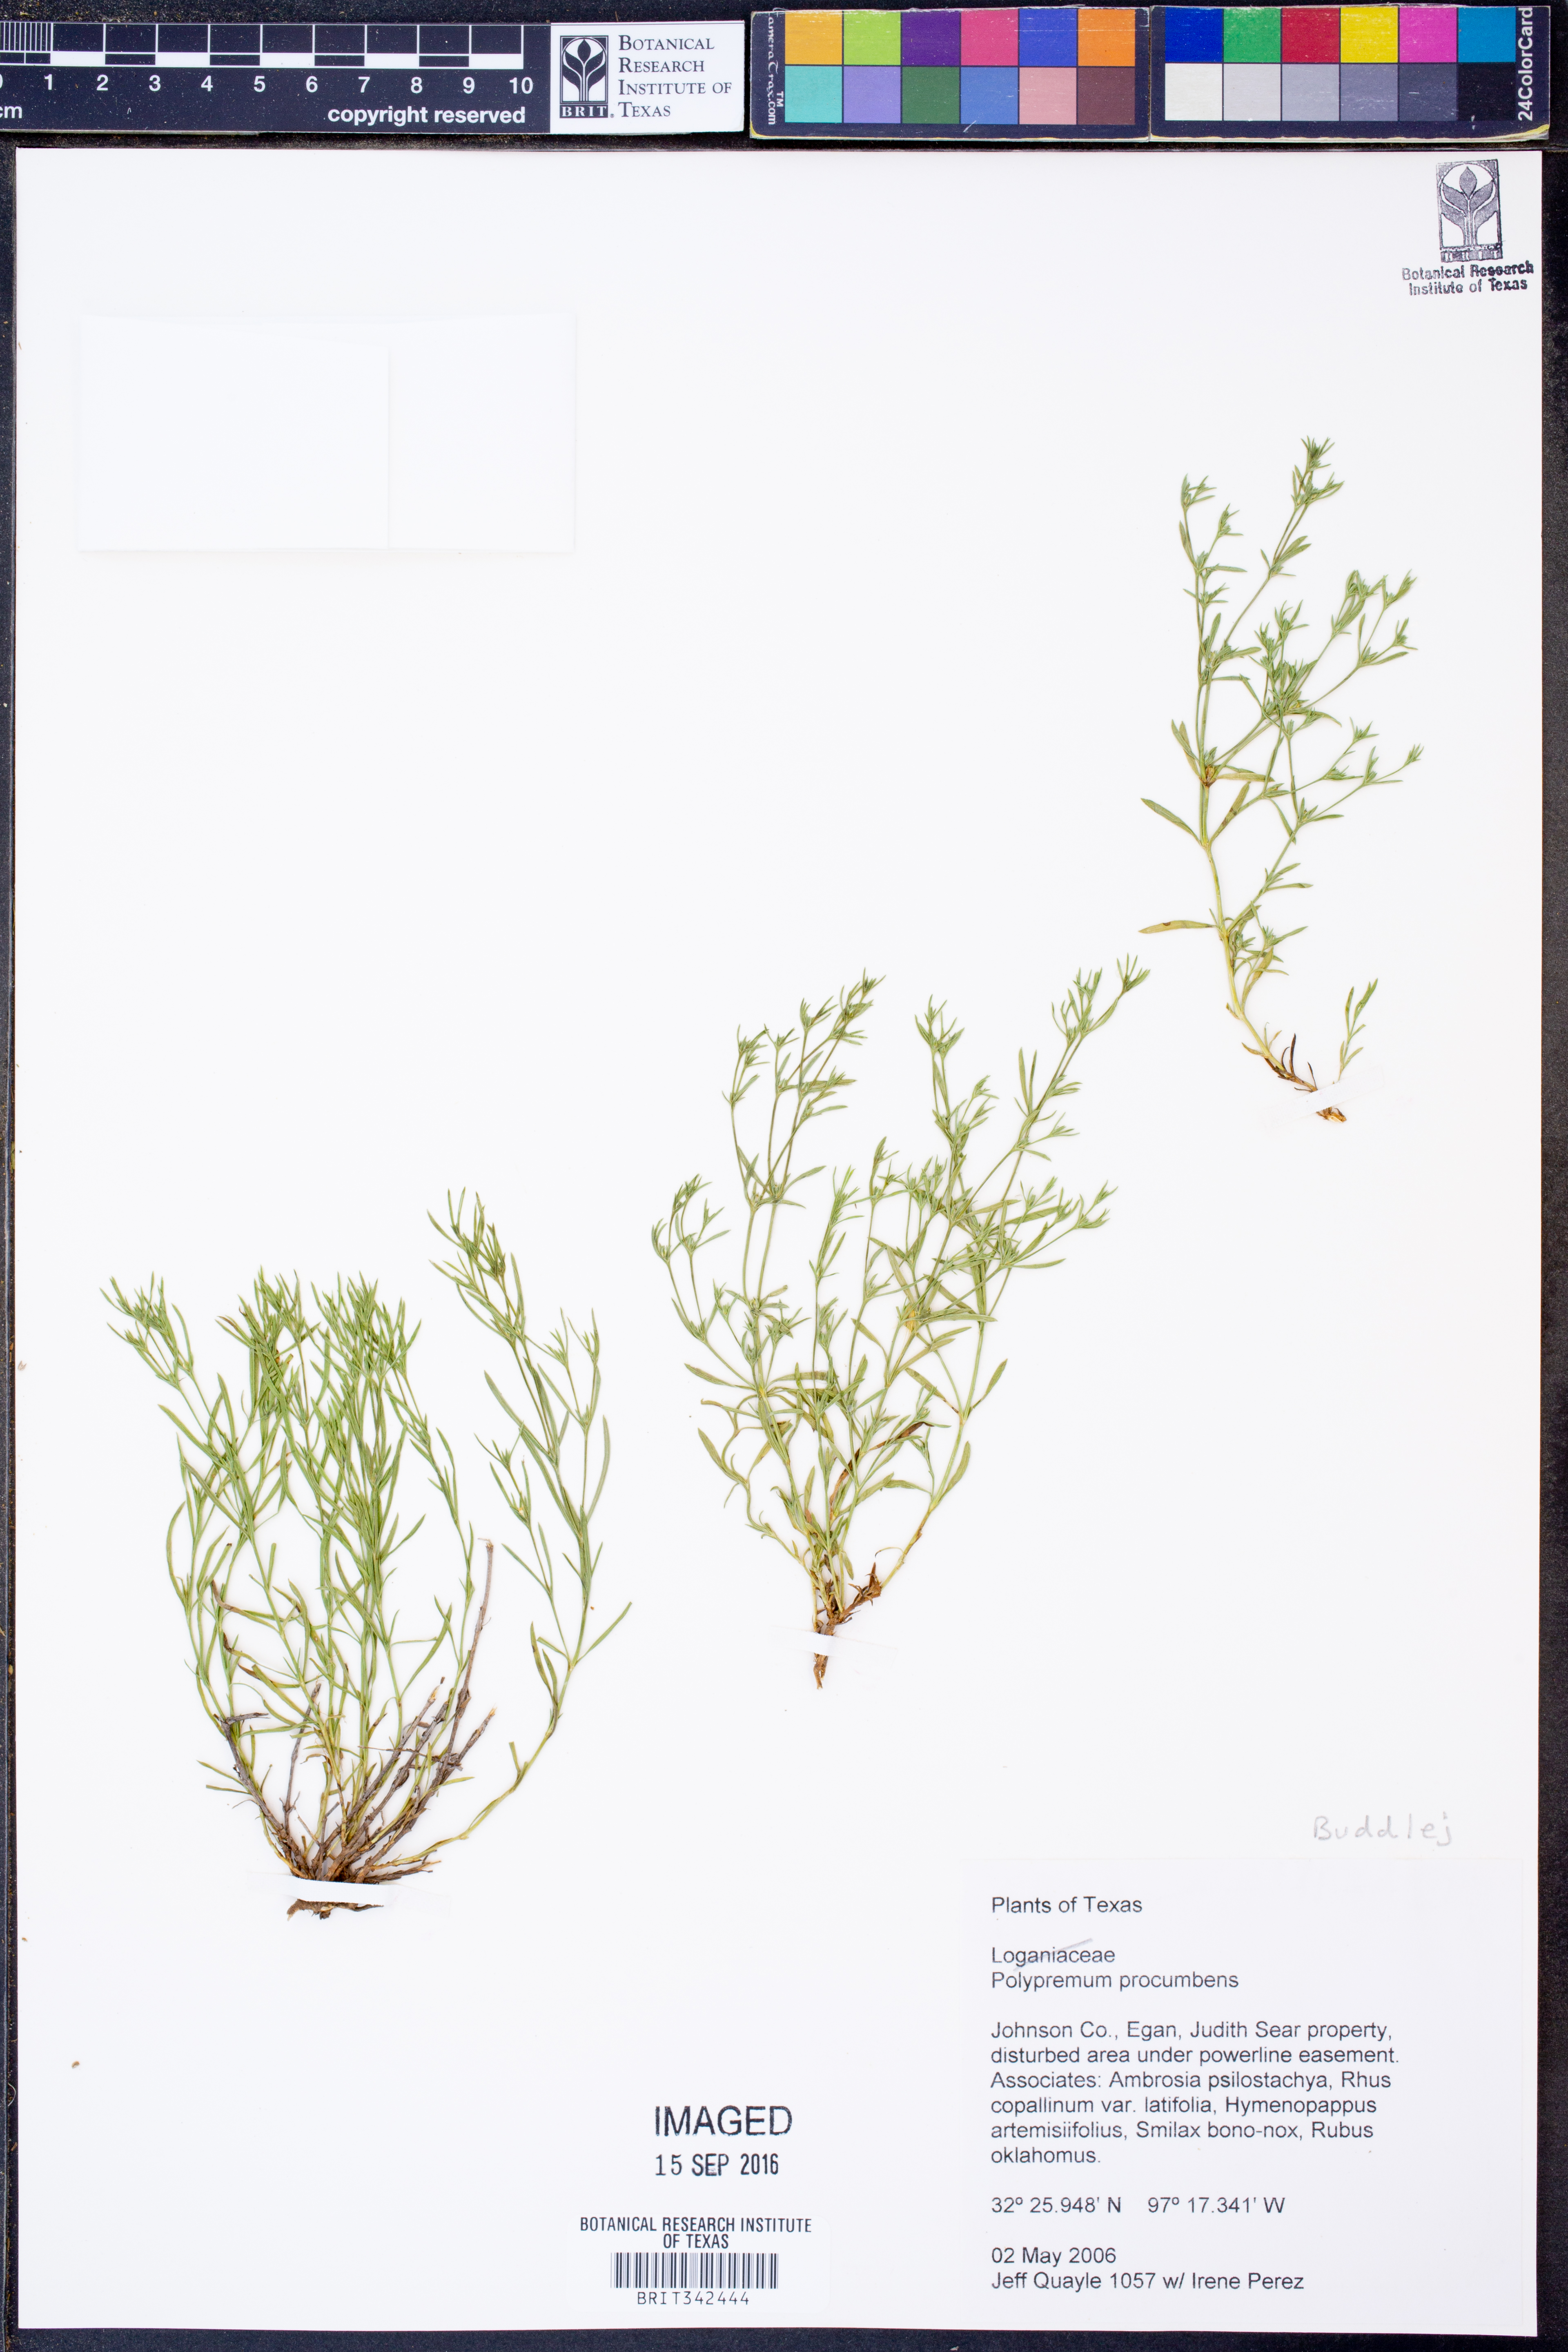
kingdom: Plantae
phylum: Tracheophyta
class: Magnoliopsida
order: Lamiales
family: Tetrachondraceae
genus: Polypremum
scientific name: Polypremum procumbens
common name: Juniper-leaf
